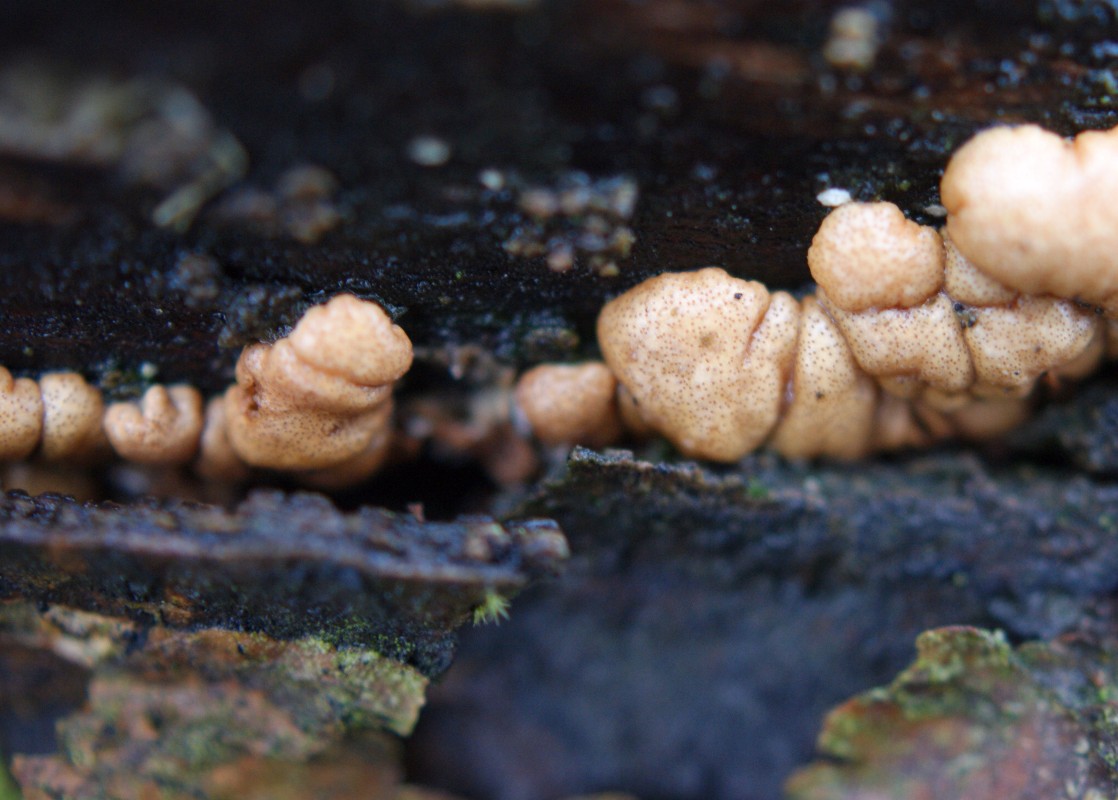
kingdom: Fungi
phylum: Ascomycota
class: Sordariomycetes
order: Hypocreales
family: Hypocreaceae
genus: Trichoderma
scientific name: Trichoderma europaeum
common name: rosabrun kødkerne
